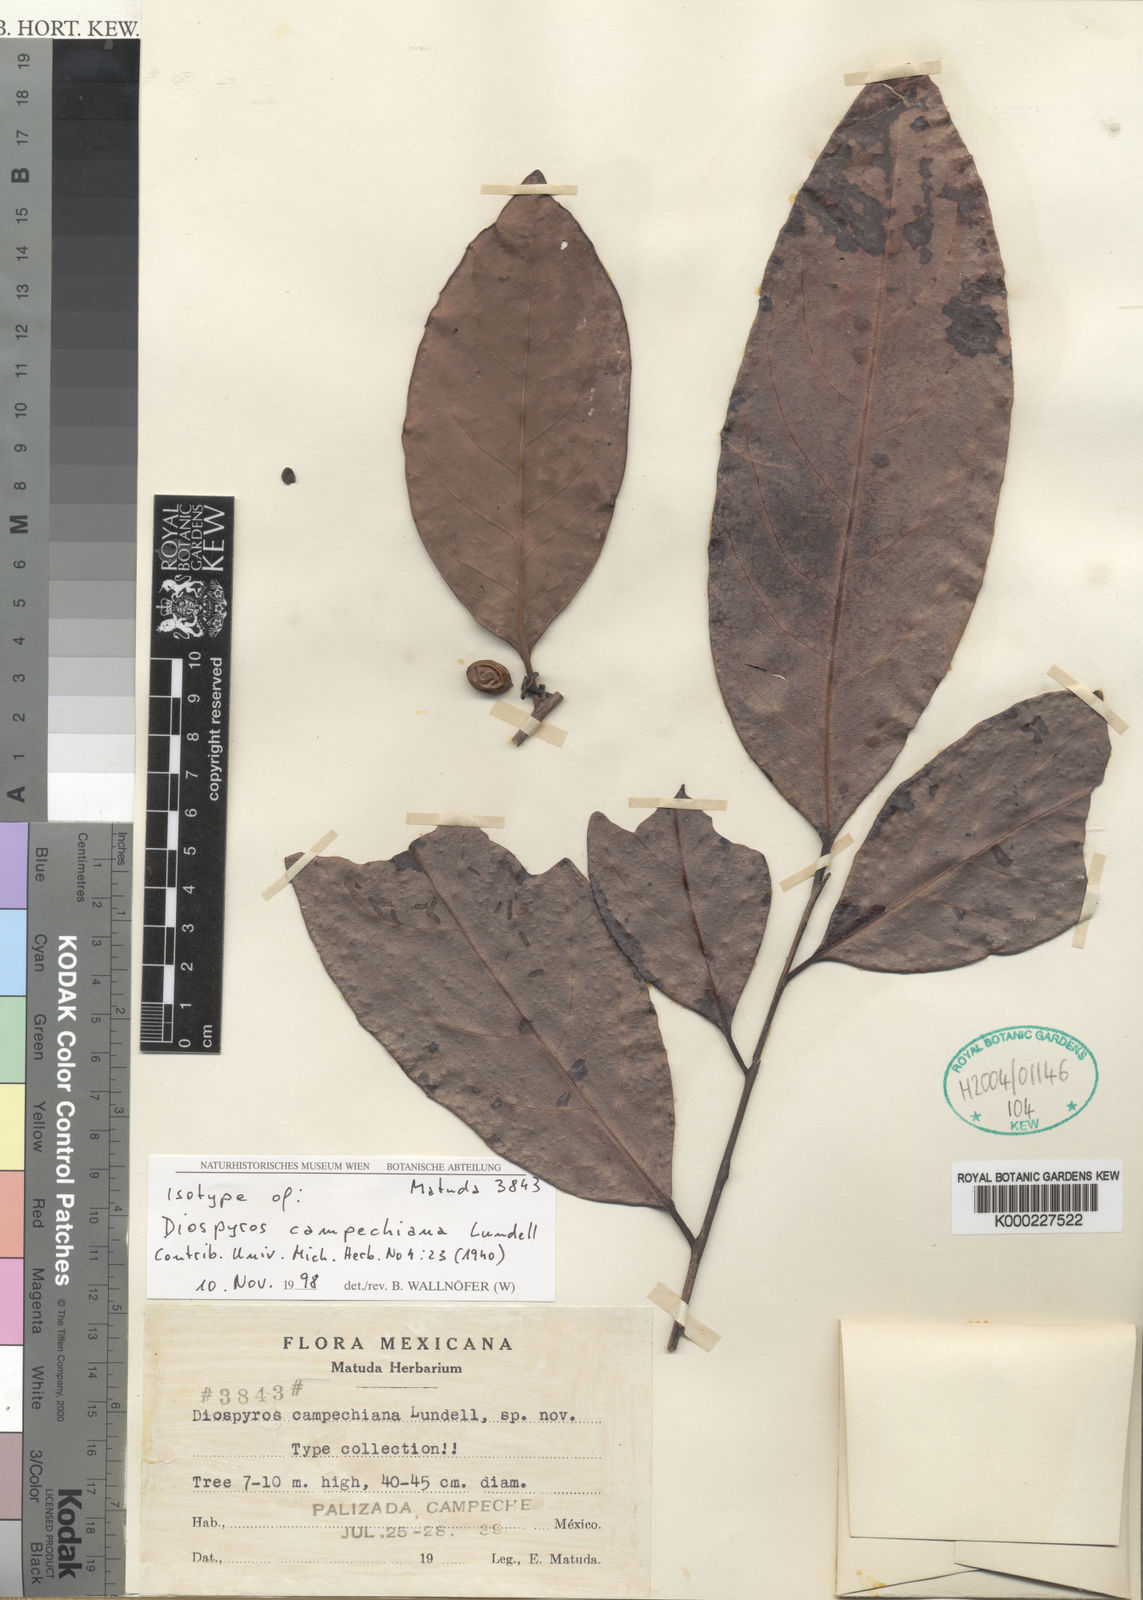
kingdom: Plantae
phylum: Tracheophyta
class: Magnoliopsida
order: Ericales
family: Ebenaceae
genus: Diospyros
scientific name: Diospyros juruensis
